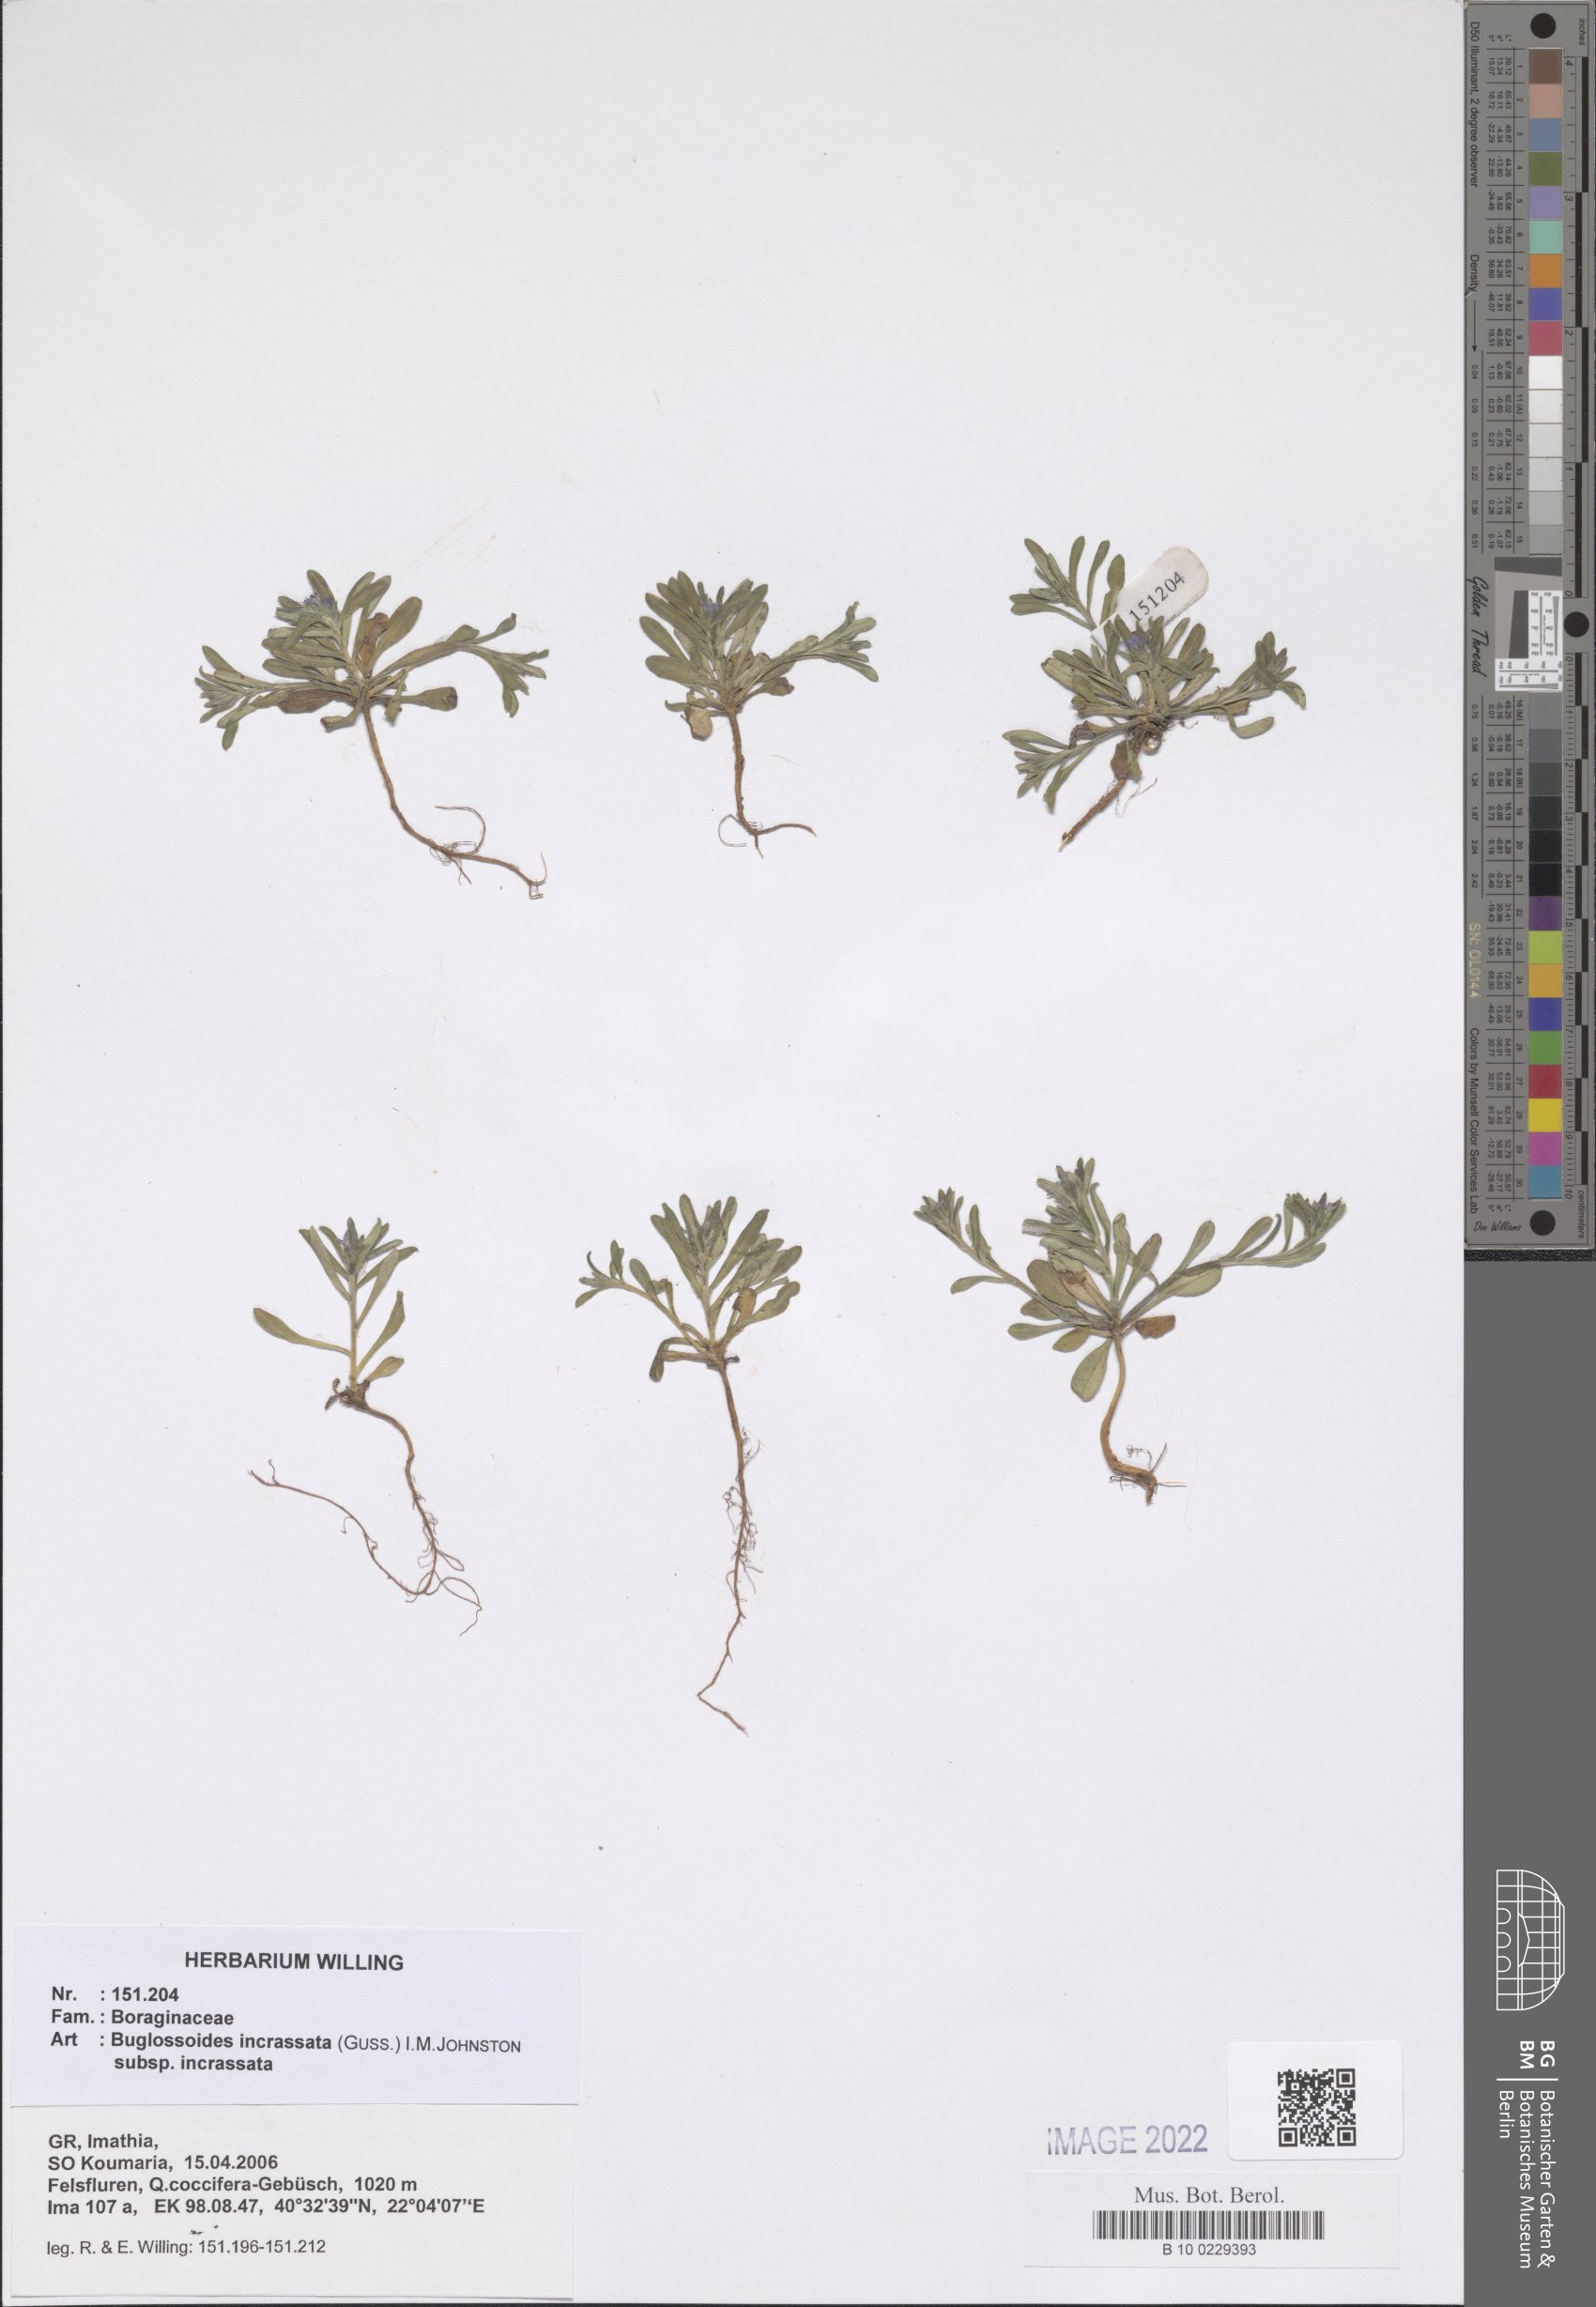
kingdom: Plantae
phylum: Tracheophyta
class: Magnoliopsida
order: Boraginales
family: Boraginaceae
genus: Buglossoides
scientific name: Buglossoides incrassata
